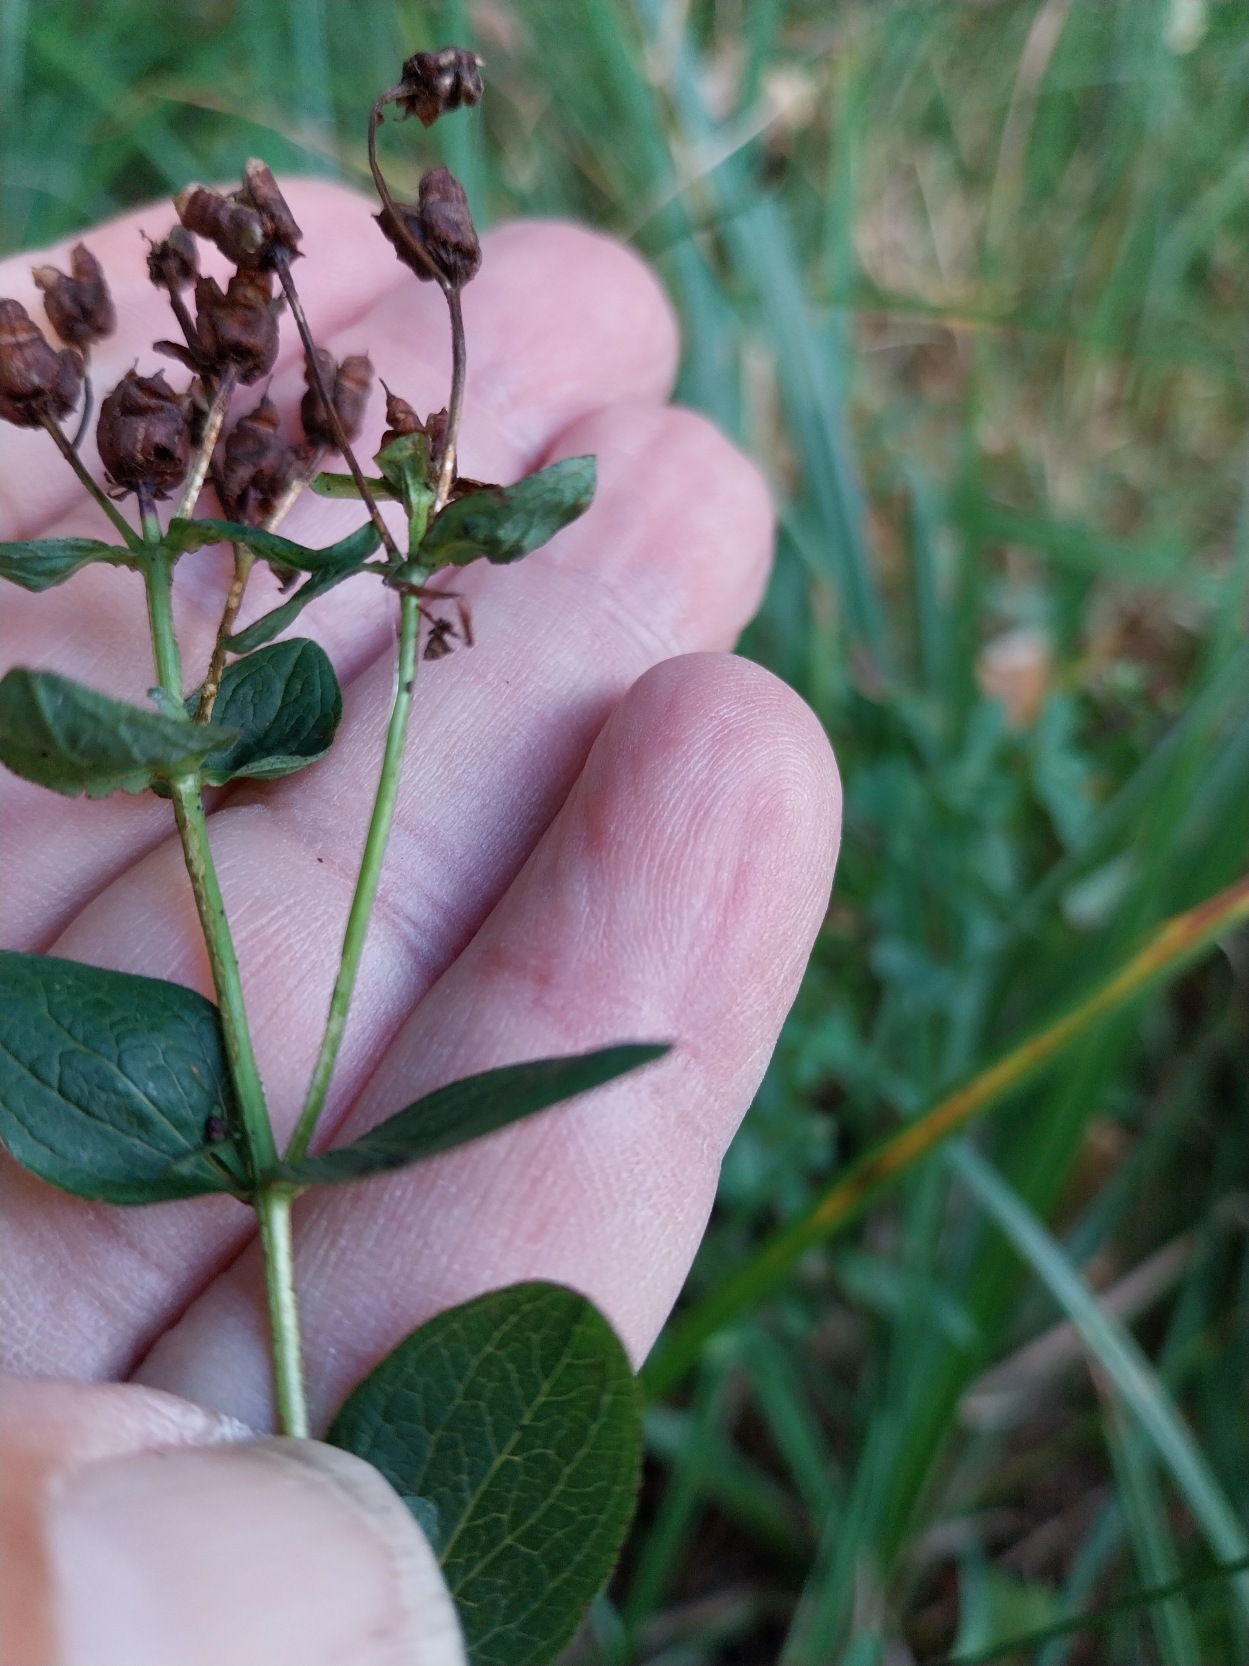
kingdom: Plantae
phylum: Tracheophyta
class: Magnoliopsida
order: Malpighiales
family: Hypericaceae
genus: Hypericum
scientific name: Hypericum maculatum
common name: Kantet perikon
